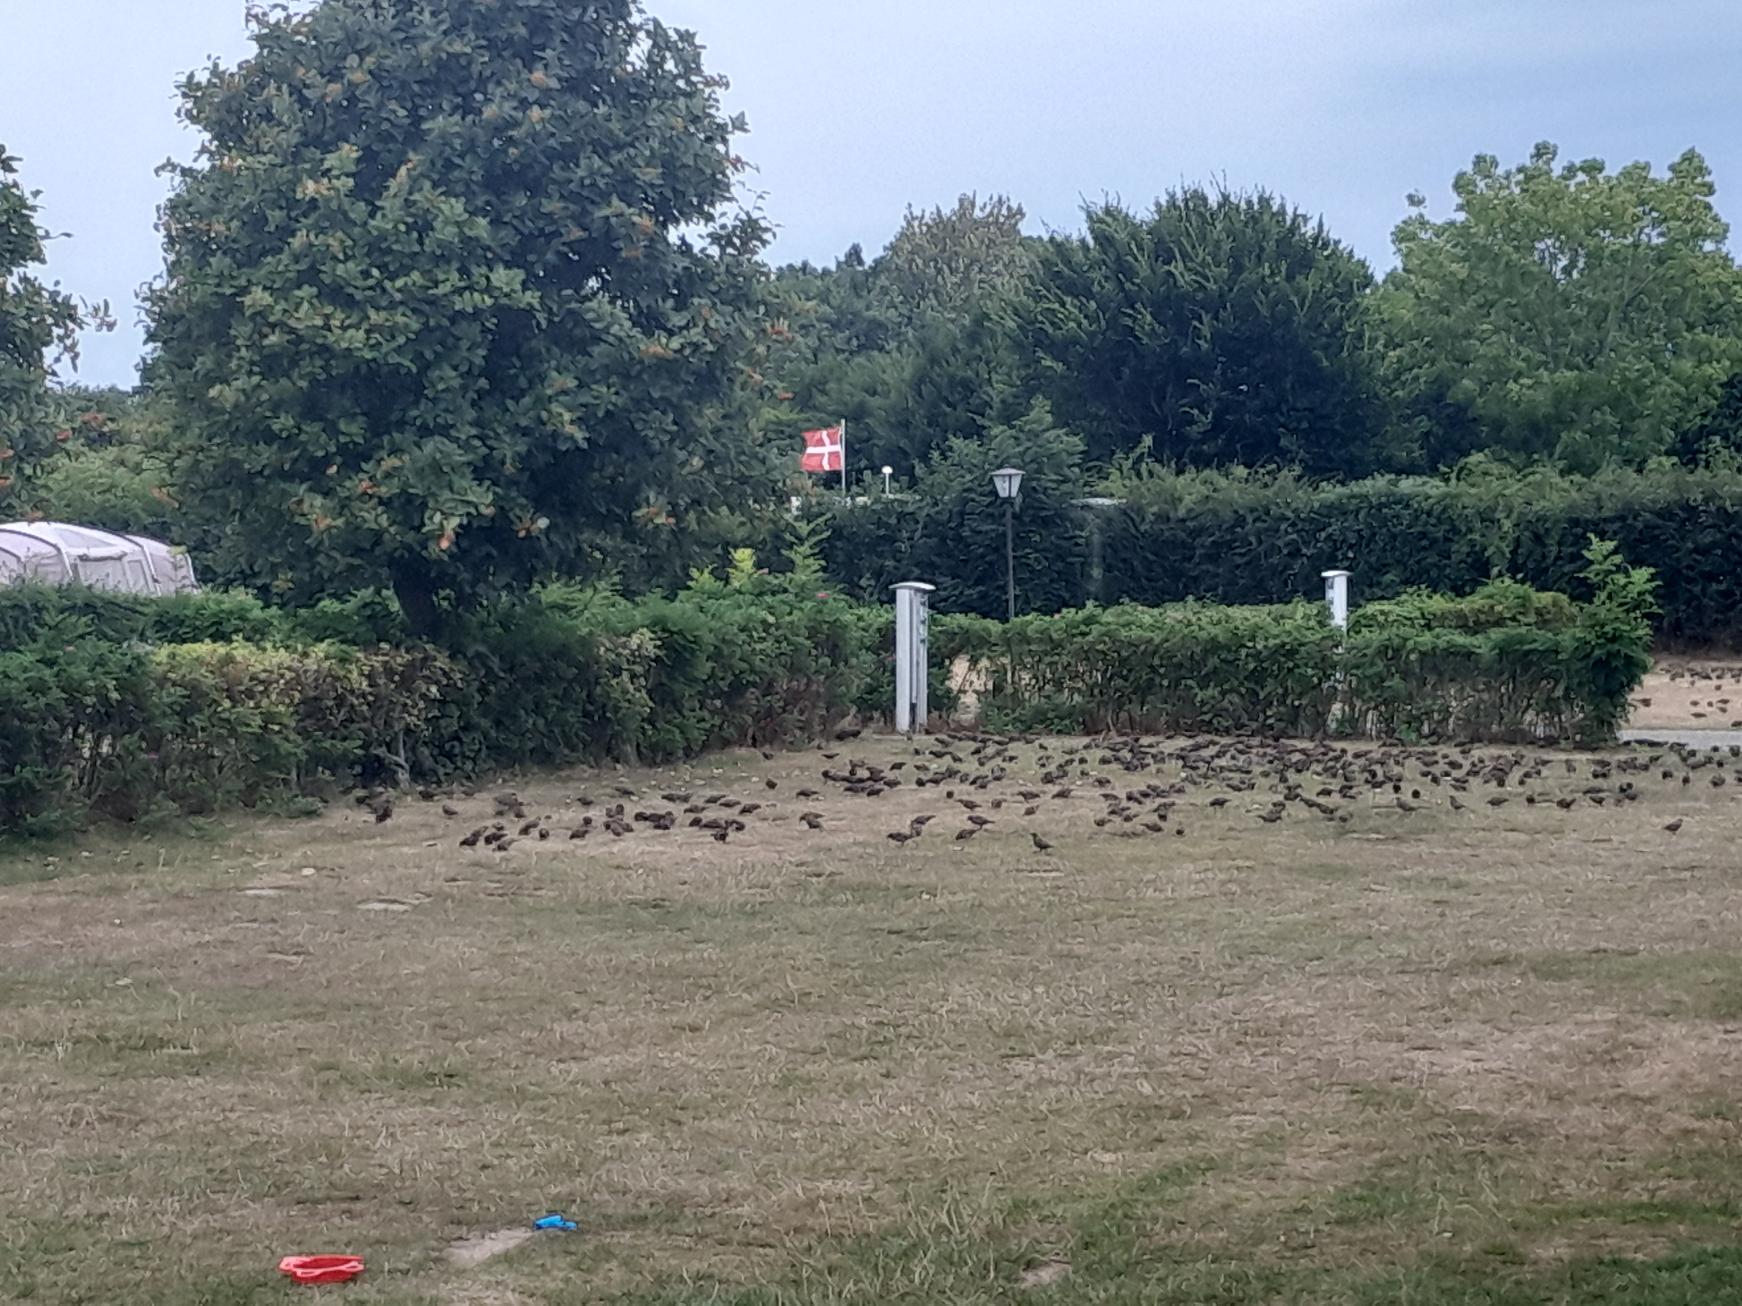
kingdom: Animalia
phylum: Chordata
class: Aves
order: Passeriformes
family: Sturnidae
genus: Sturnus
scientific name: Sturnus vulgaris
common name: Stær
